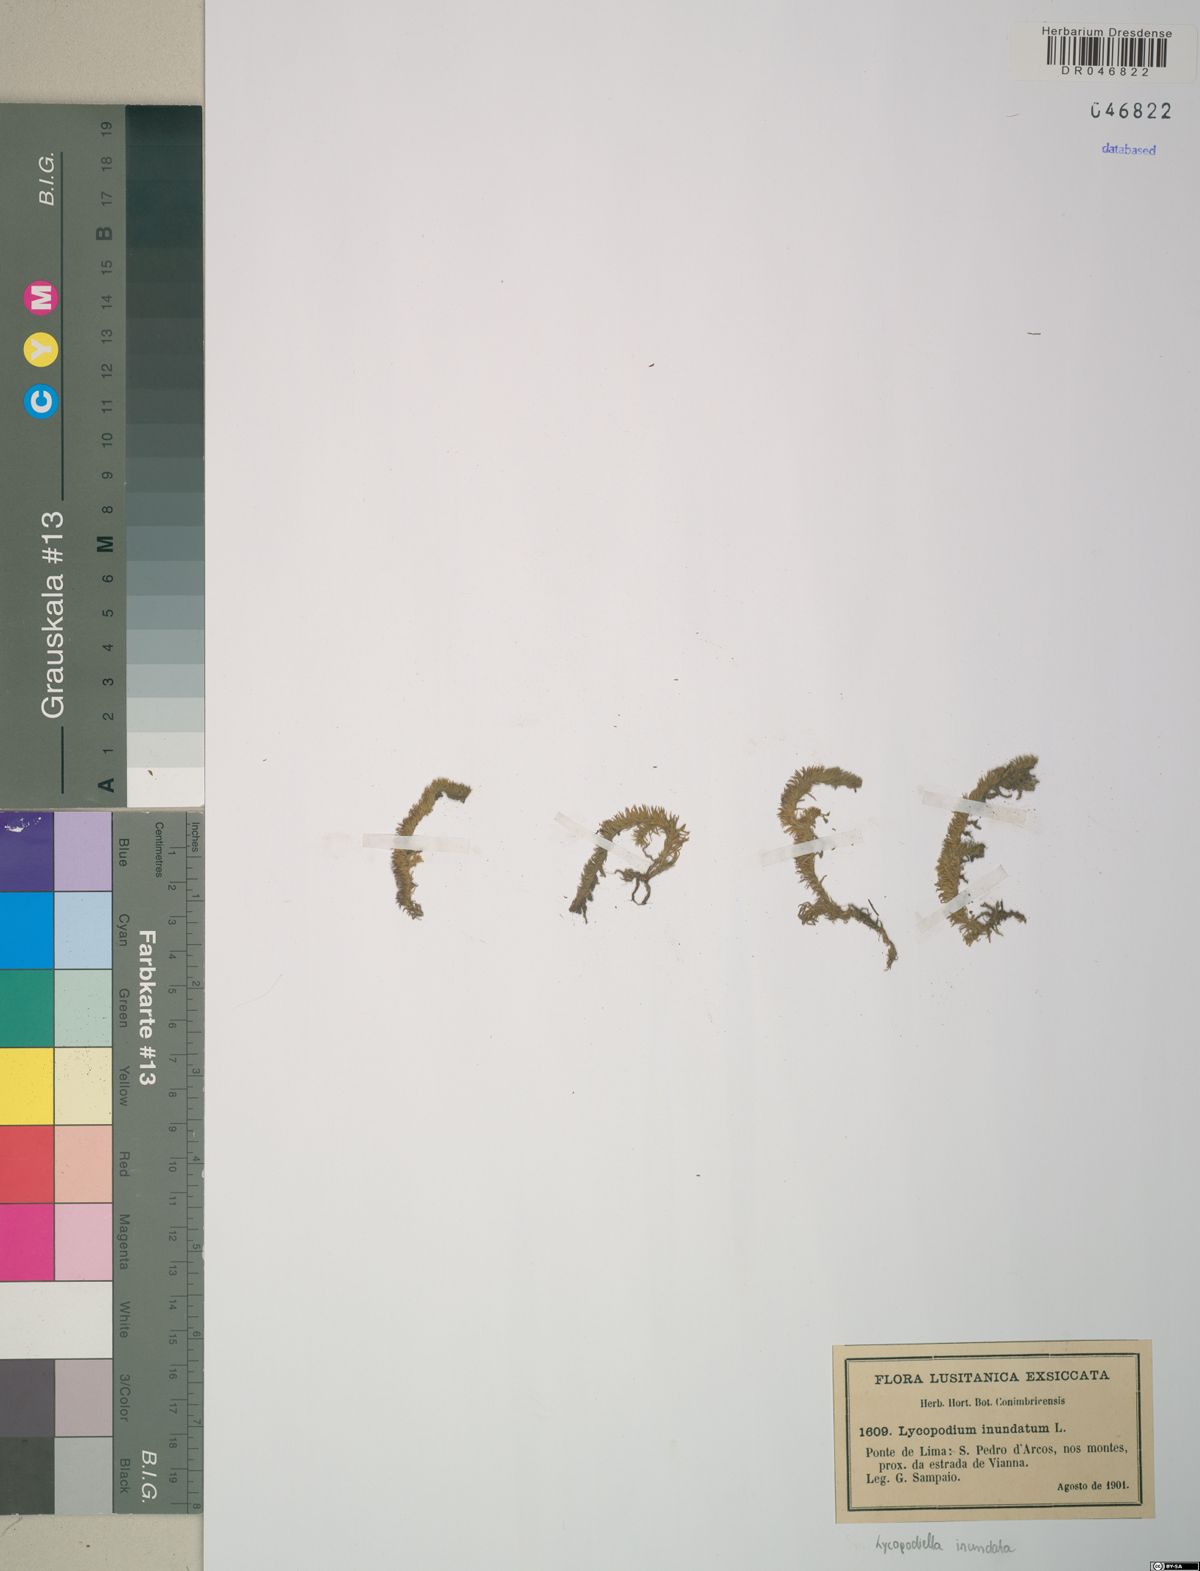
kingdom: Plantae
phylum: Tracheophyta
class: Lycopodiopsida
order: Lycopodiales
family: Lycopodiaceae
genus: Lycopodiella
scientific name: Lycopodiella inundata
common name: Marsh clubmoss
